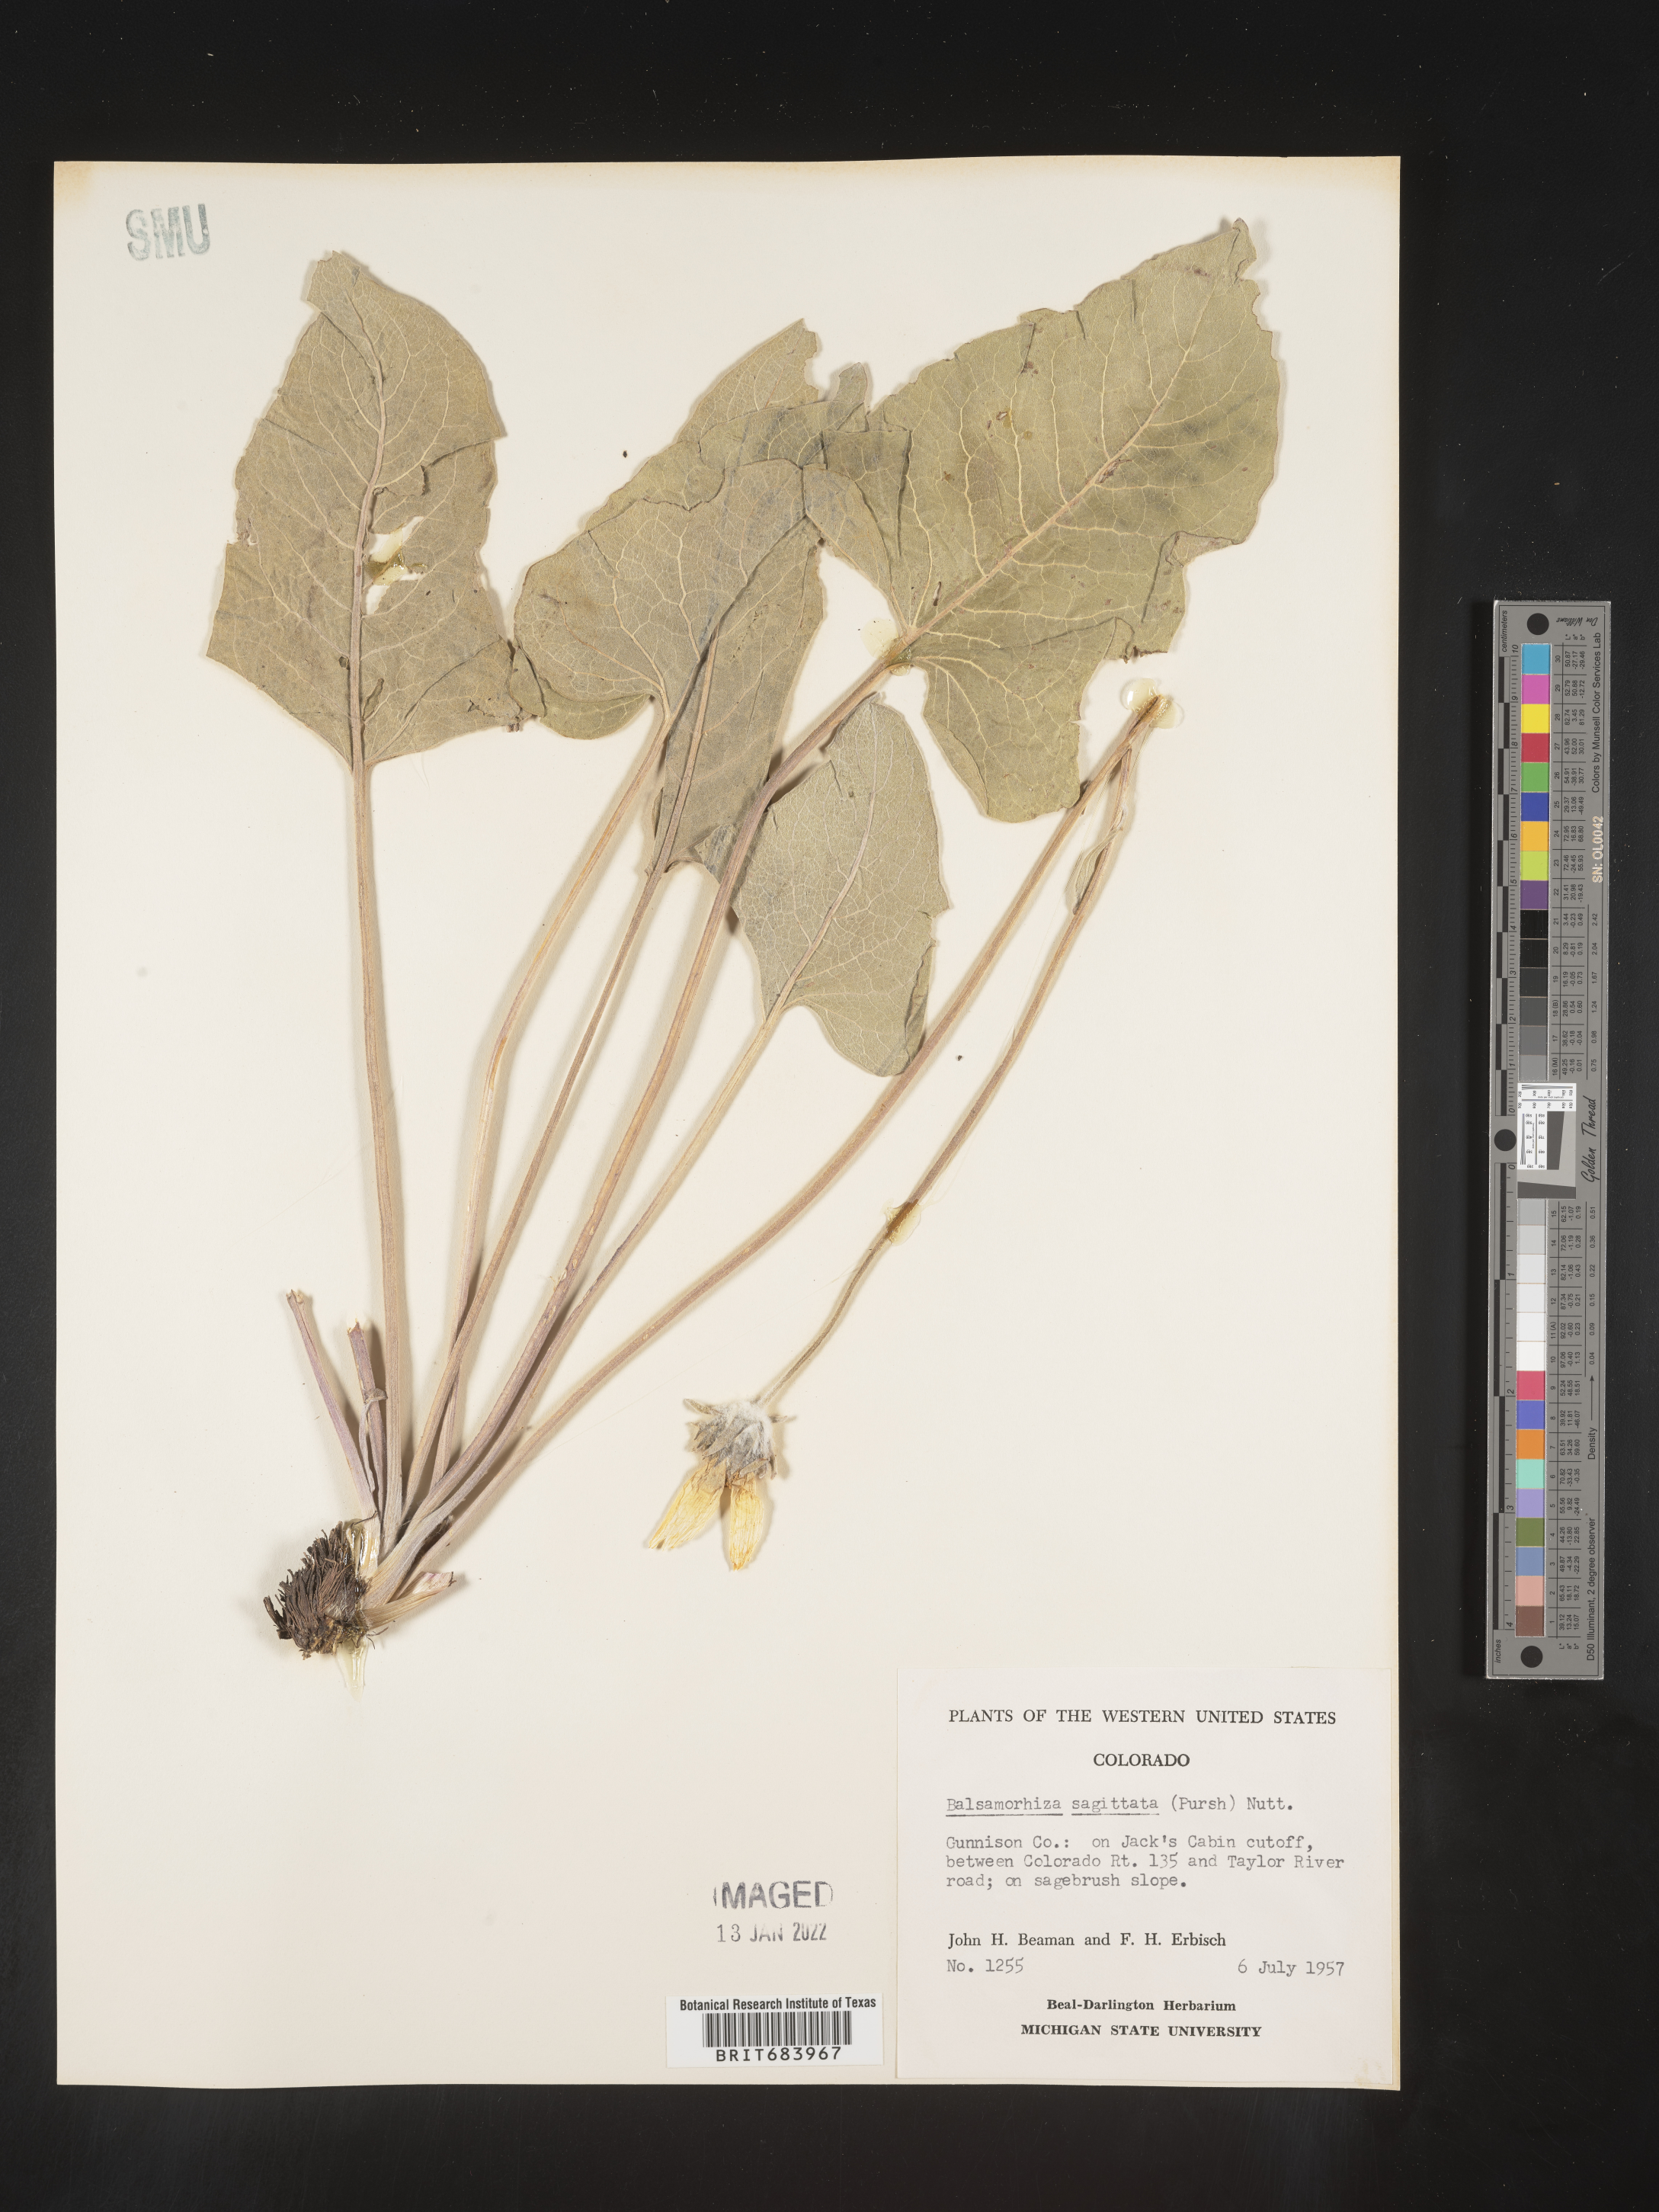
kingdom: Plantae
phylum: Tracheophyta
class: Magnoliopsida
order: Asterales
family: Asteraceae
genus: Wyethia
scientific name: Wyethia sagittata
